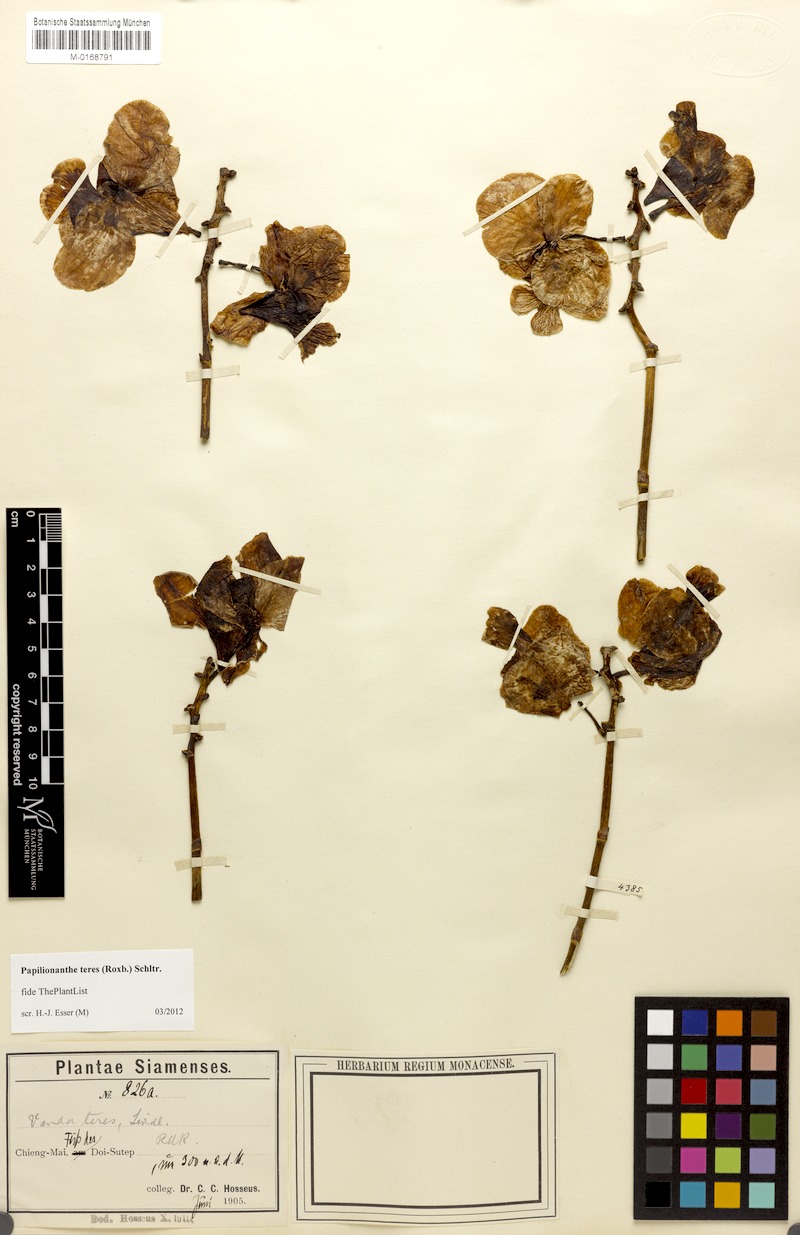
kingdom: Plantae
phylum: Tracheophyta
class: Liliopsida
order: Asparagales
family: Orchidaceae
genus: Papilionanthe
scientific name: Papilionanthe teres
